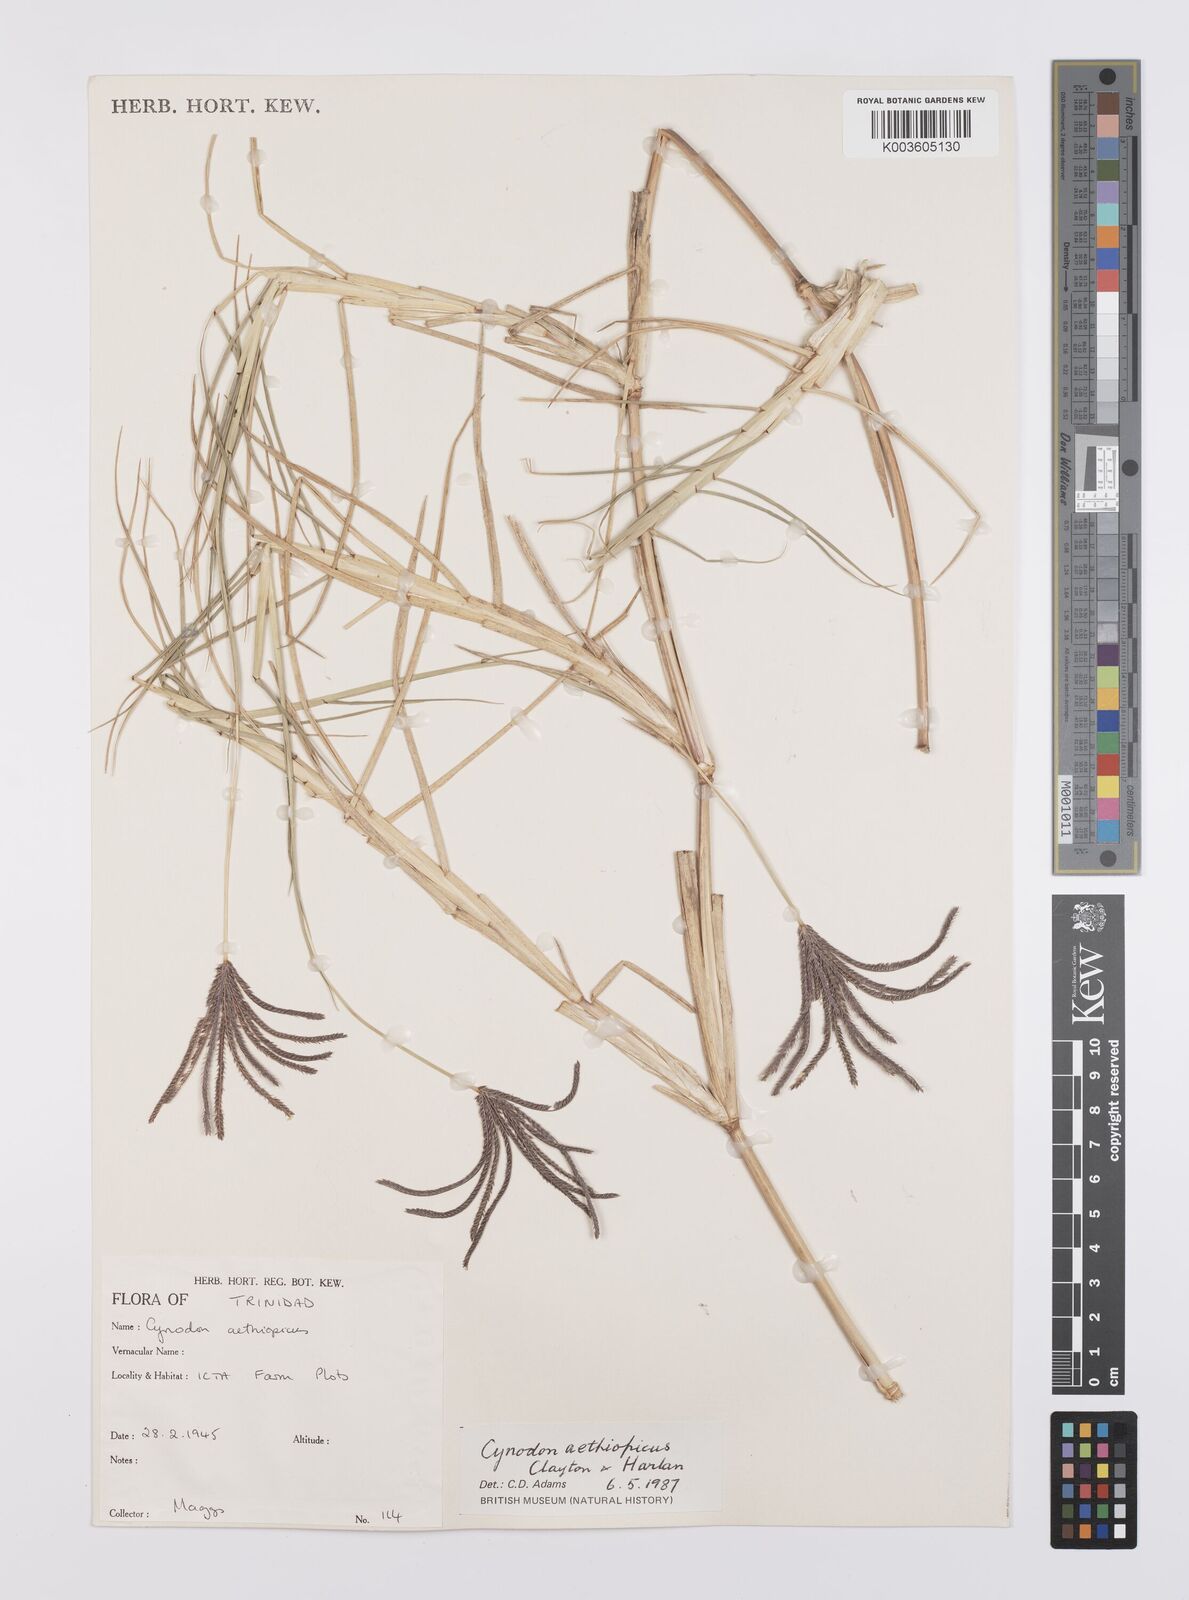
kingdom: Plantae
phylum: Tracheophyta
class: Liliopsida
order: Poales
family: Poaceae
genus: Cynodon
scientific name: Cynodon aethiopicus
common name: Ethiopian dogstooth grass
